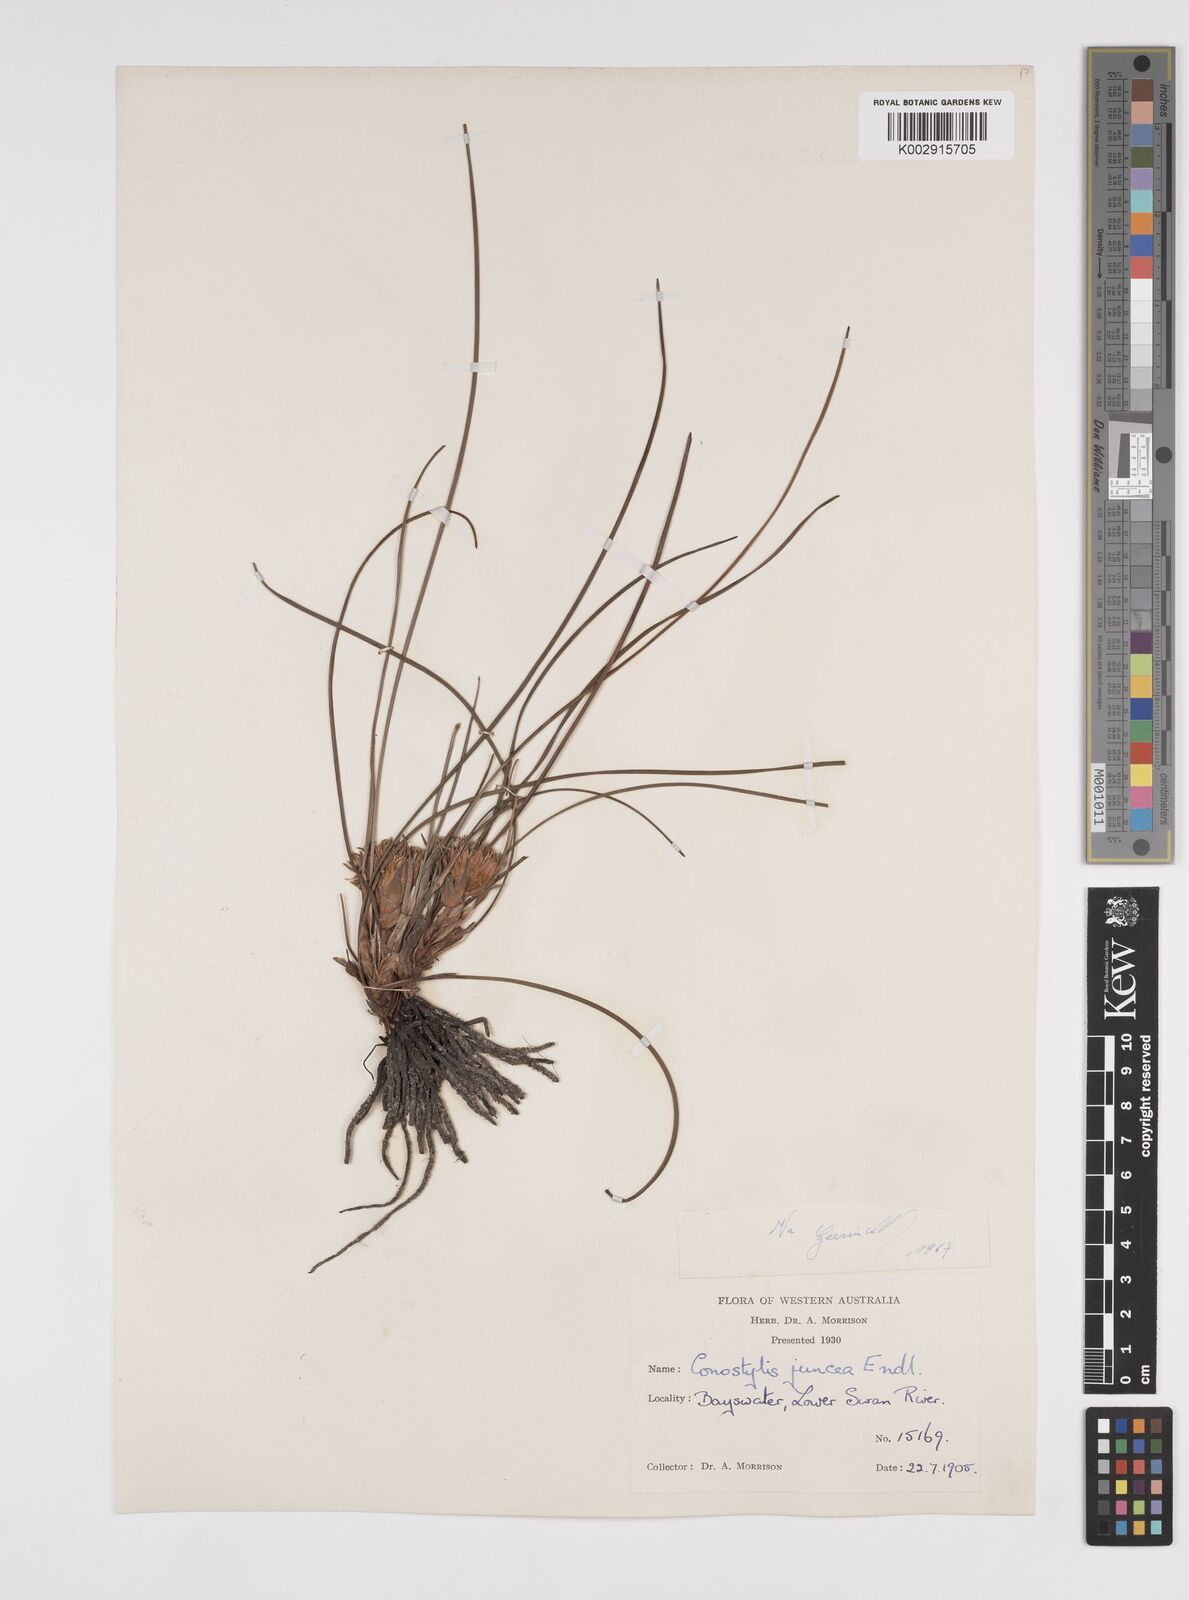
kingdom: Plantae
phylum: Tracheophyta
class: Liliopsida
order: Commelinales
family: Haemodoraceae
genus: Conostylis
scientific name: Conostylis juncea
